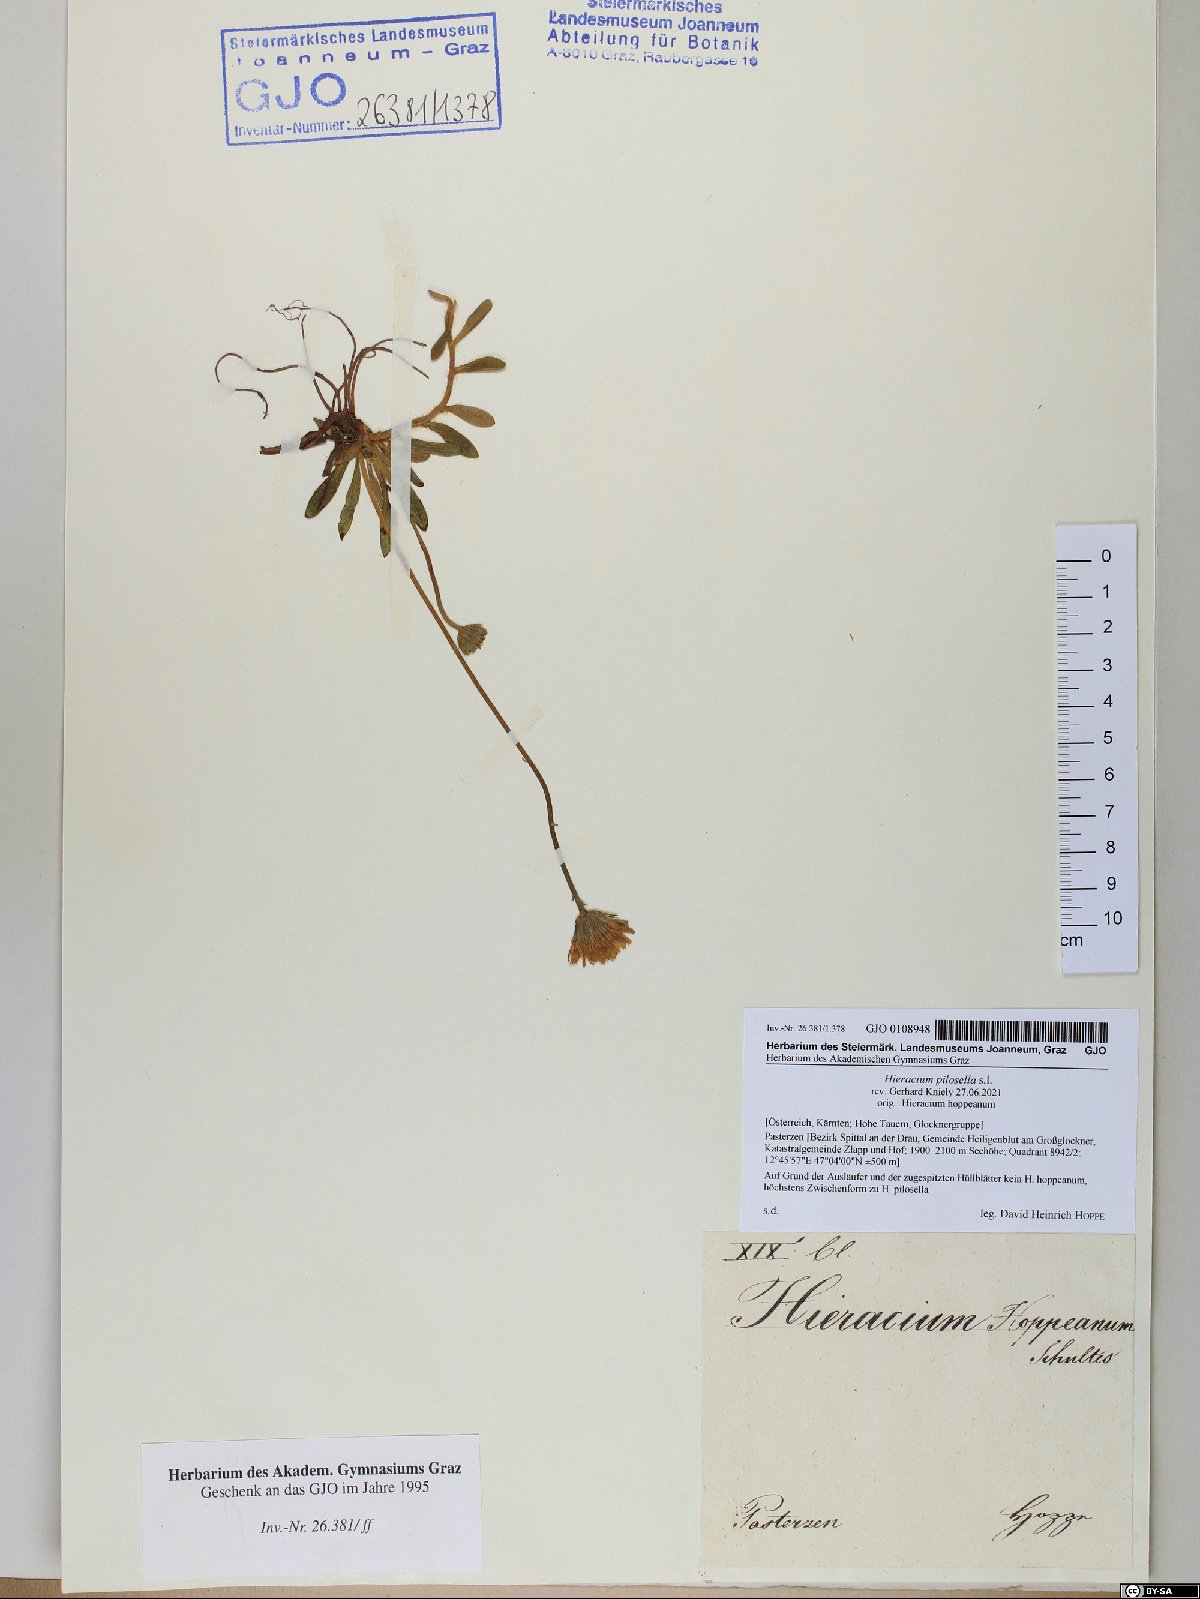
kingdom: Plantae
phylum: Tracheophyta
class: Magnoliopsida
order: Asterales
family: Asteraceae
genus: Pilosella
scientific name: Pilosella officinarum
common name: Mouse-ear hawkweed
